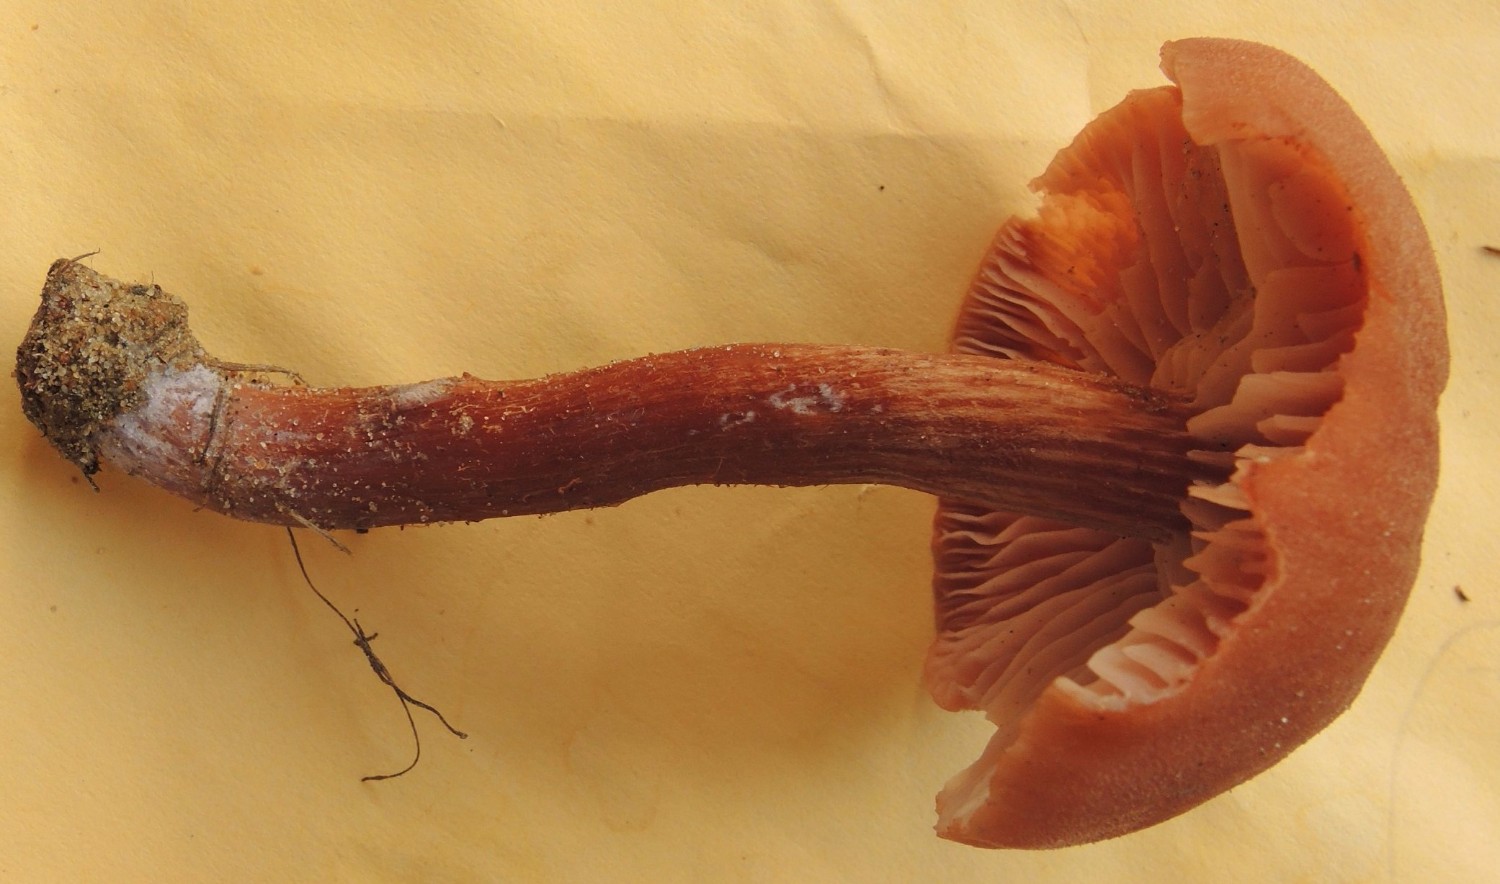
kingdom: Fungi
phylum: Basidiomycota
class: Agaricomycetes
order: Agaricales
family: Hydnangiaceae
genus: Laccaria
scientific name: Laccaria bicolor
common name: tvefarvet ametysthat
